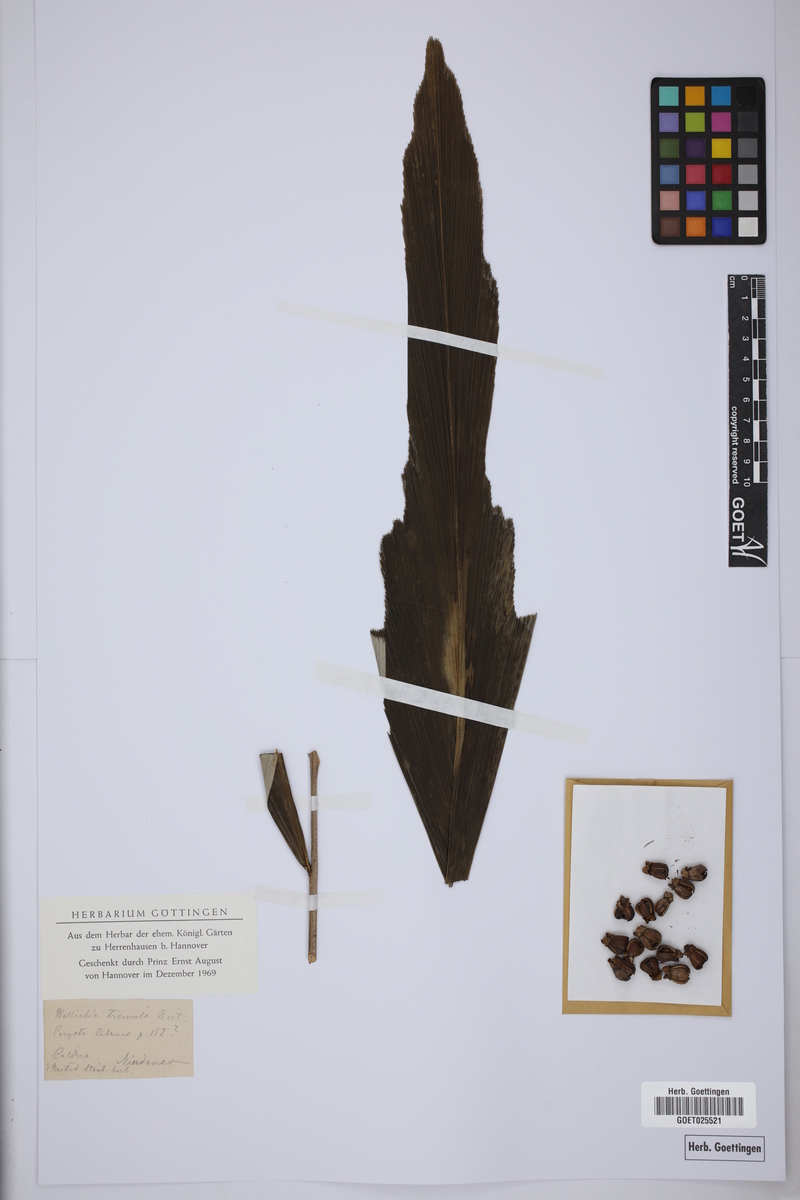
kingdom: Plantae
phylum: Tracheophyta
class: Liliopsida
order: Arecales
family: Arecaceae
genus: Arenga
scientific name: Arenga tremula
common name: Dwarf sugar palm
